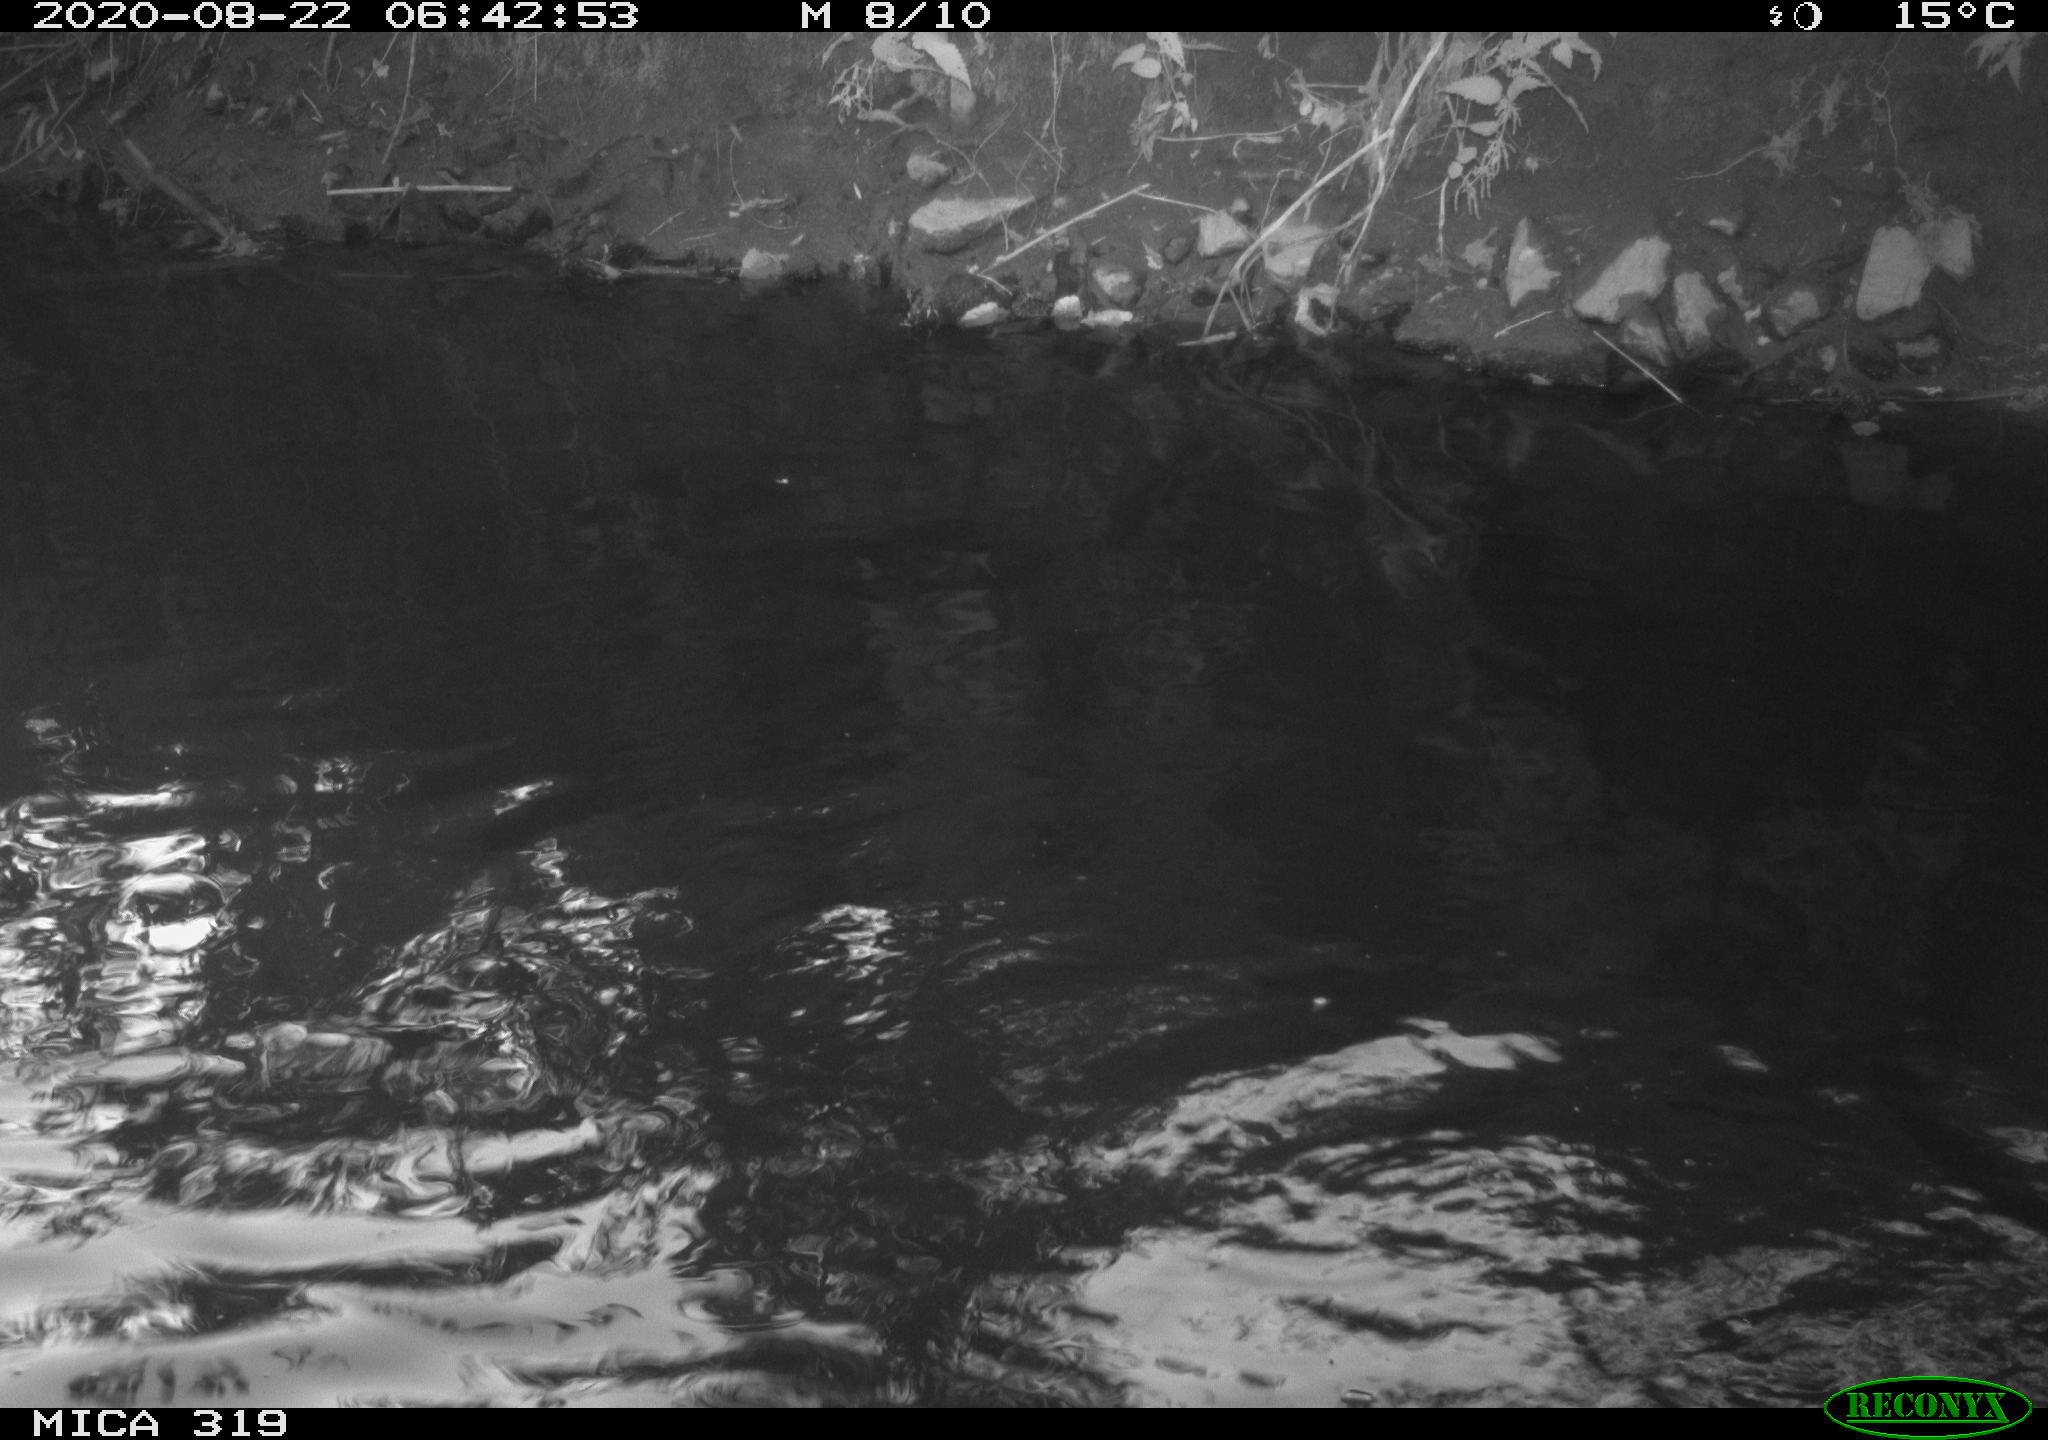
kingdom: Animalia
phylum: Chordata
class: Aves
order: Anseriformes
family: Anatidae
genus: Anas
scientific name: Anas platyrhynchos
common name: Mallard
